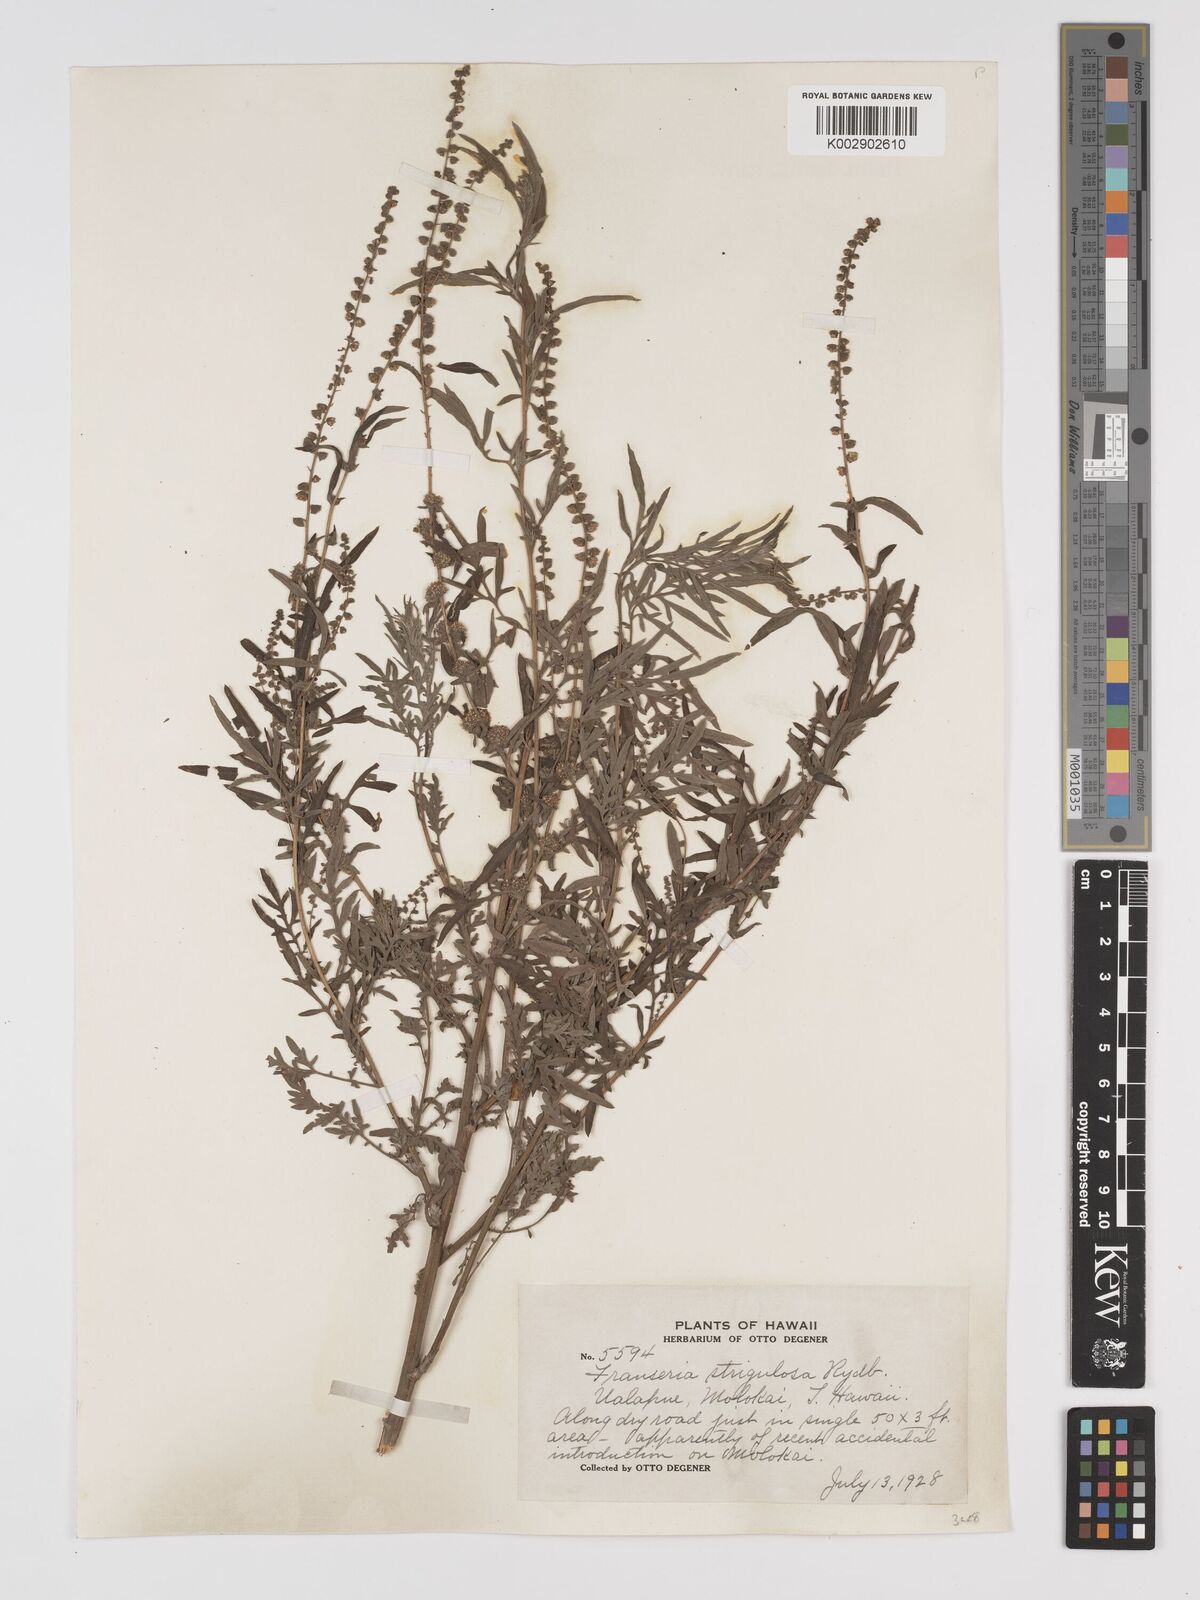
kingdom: Plantae
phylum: Tracheophyta
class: Magnoliopsida
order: Asterales
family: Asteraceae
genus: Ambrosia
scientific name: Ambrosia
